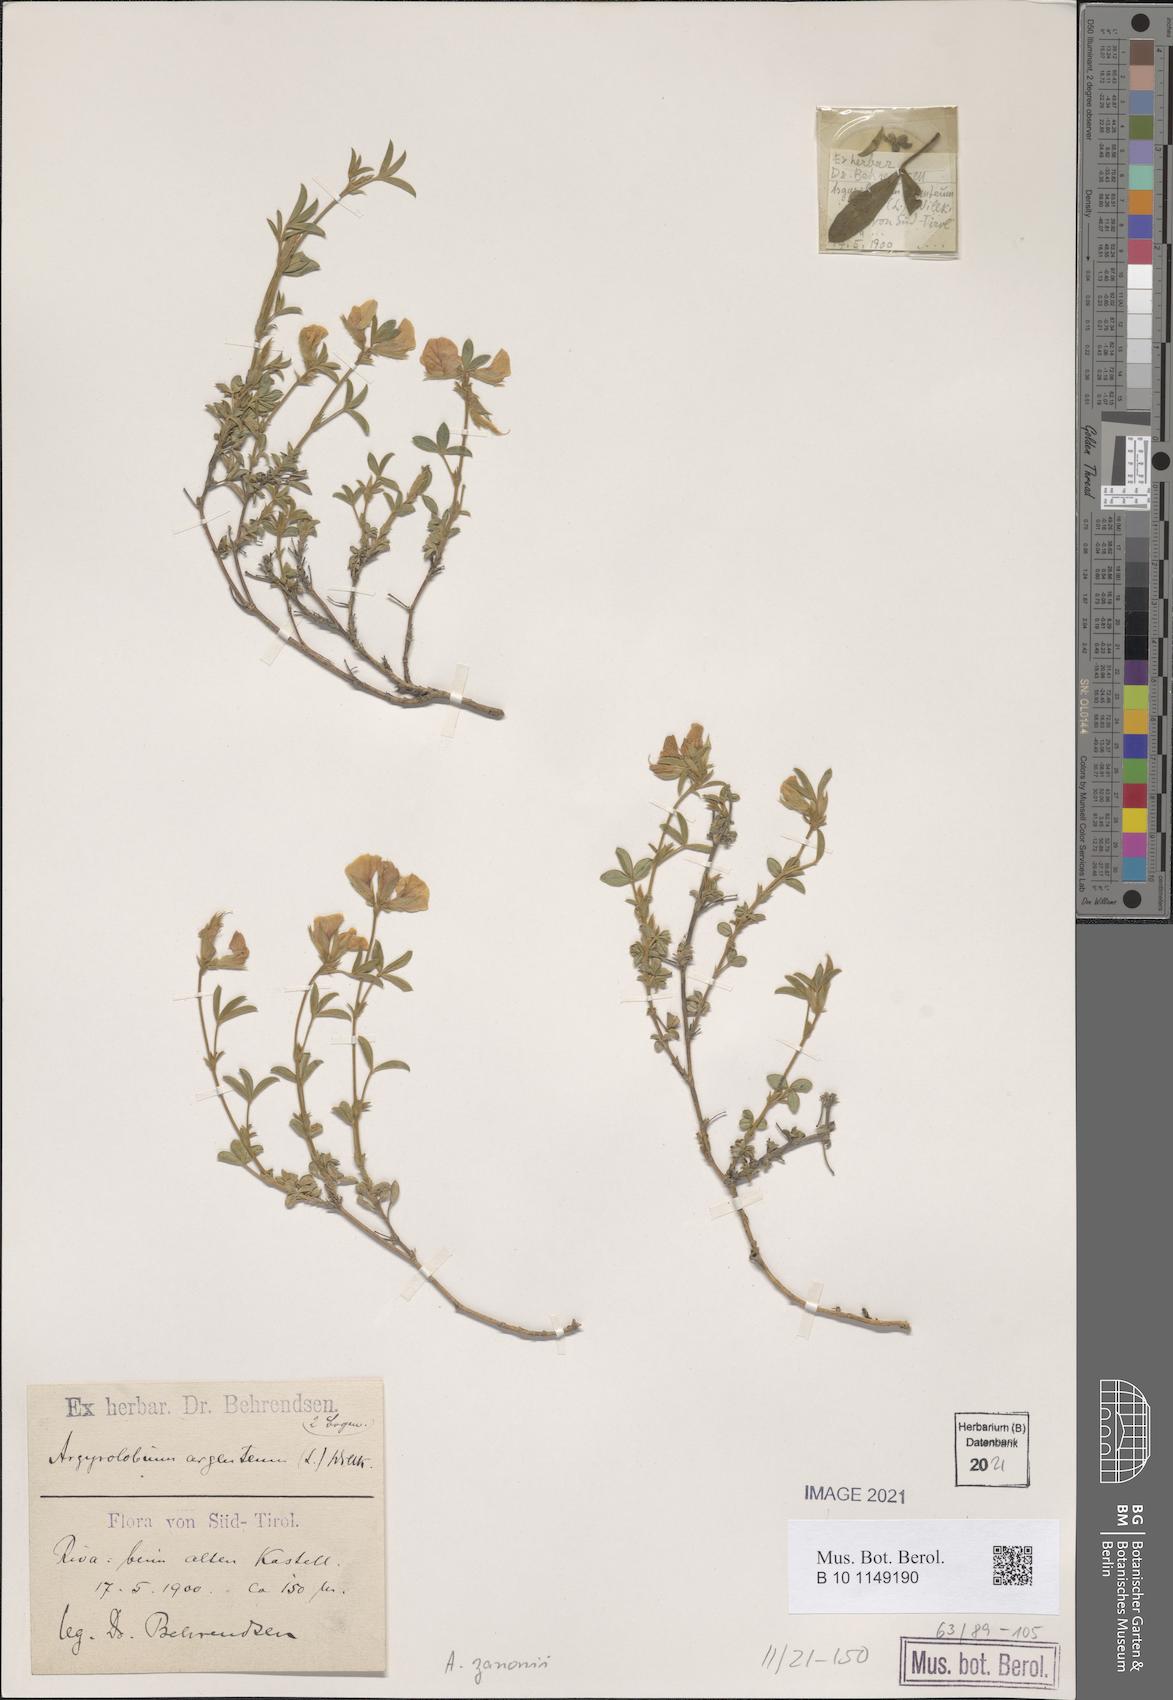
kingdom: Plantae
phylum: Tracheophyta
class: Magnoliopsida
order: Fabales
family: Fabaceae
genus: Argyrolobium
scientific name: Argyrolobium zanonii
